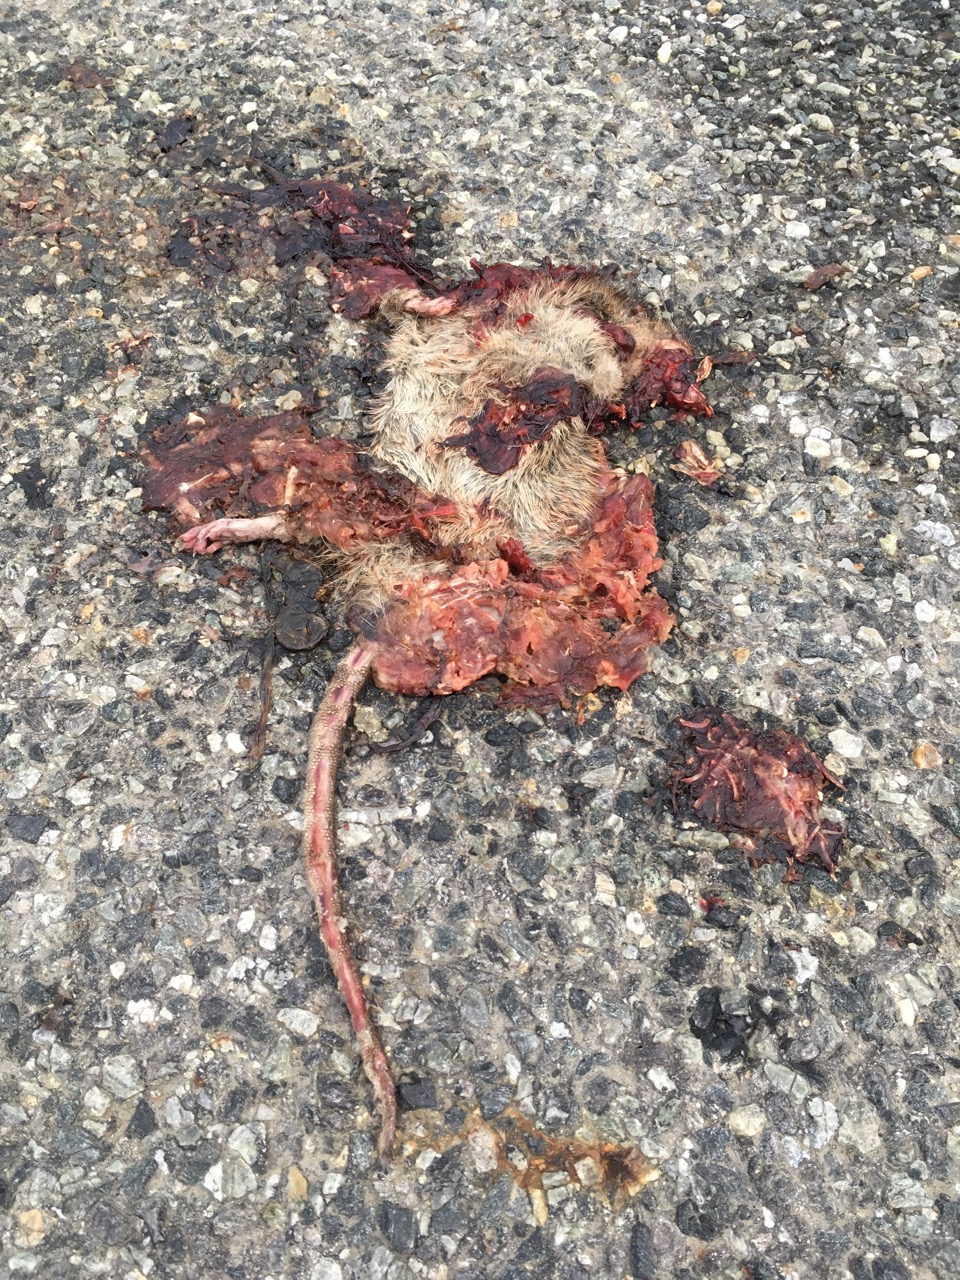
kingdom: Animalia
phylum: Chordata
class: Mammalia
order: Rodentia
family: Muridae
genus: Rattus
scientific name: Rattus norvegicus
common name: Brown rat
